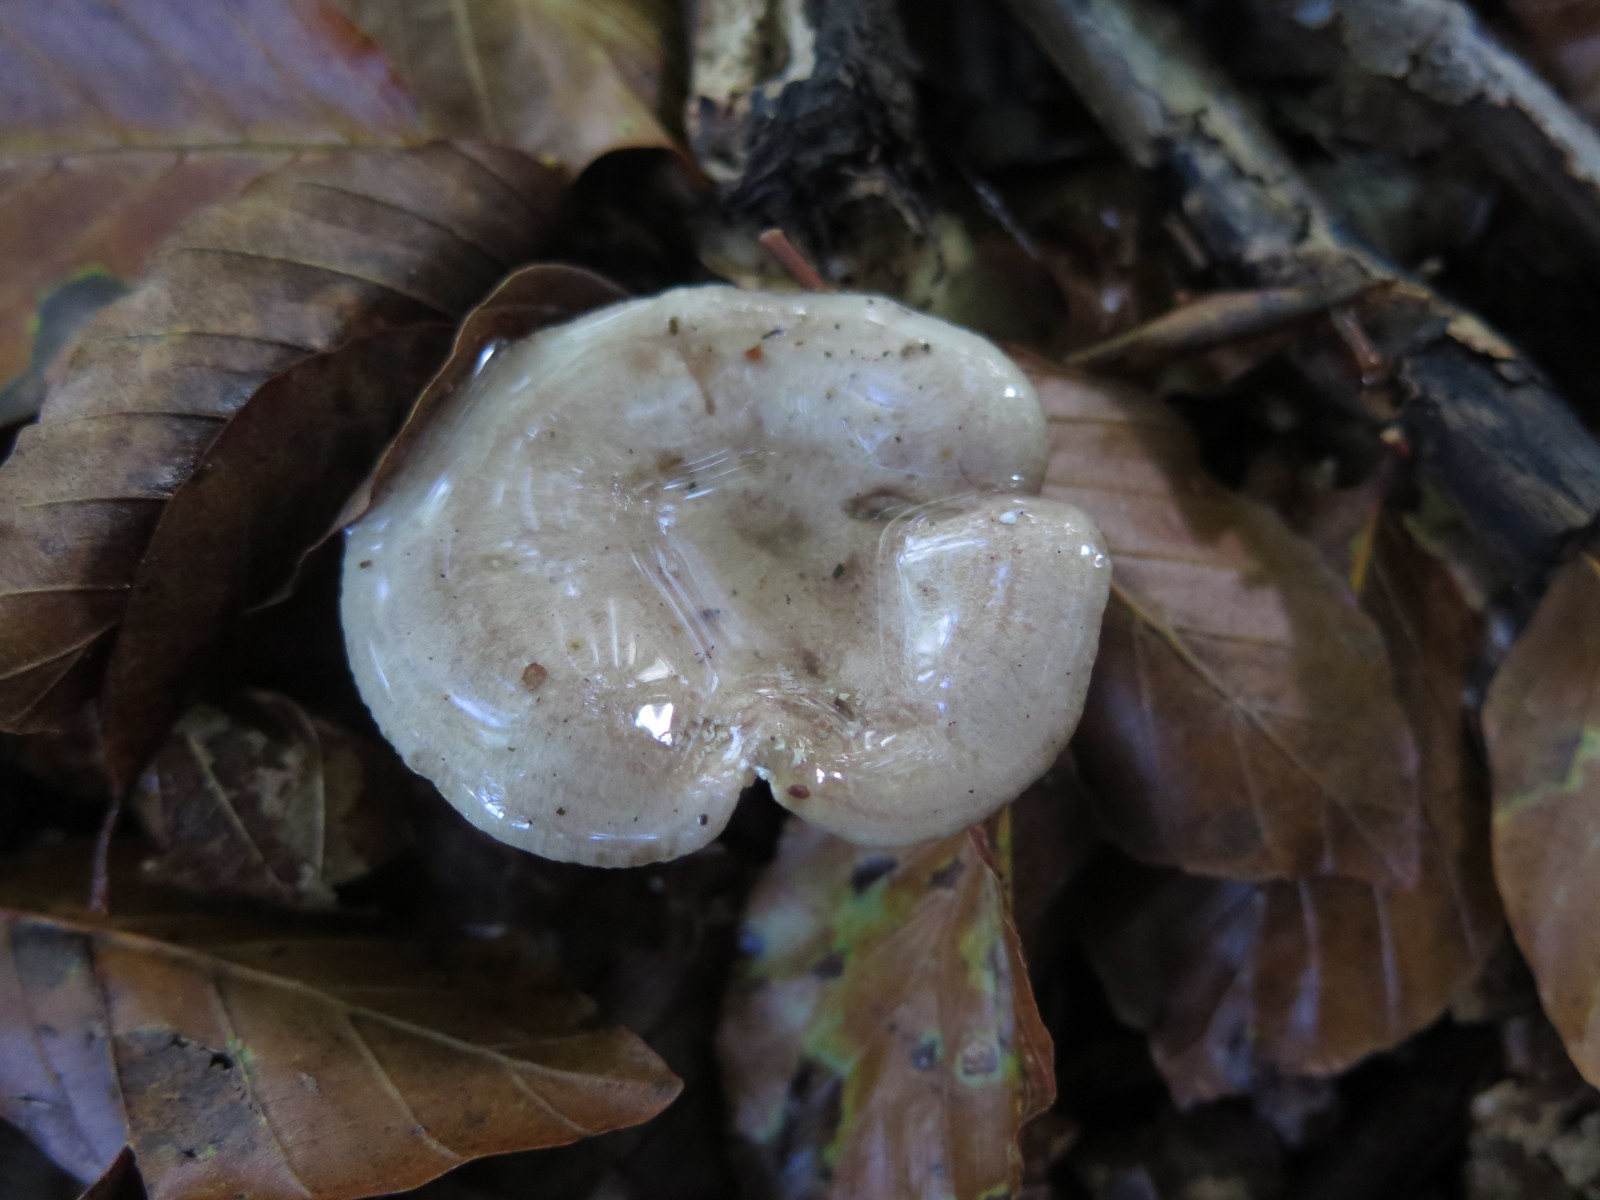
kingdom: Fungi
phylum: Basidiomycota
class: Agaricomycetes
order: Russulales
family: Russulaceae
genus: Lactarius
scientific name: Lactarius blennius
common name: dråbeplettet mælkehat
